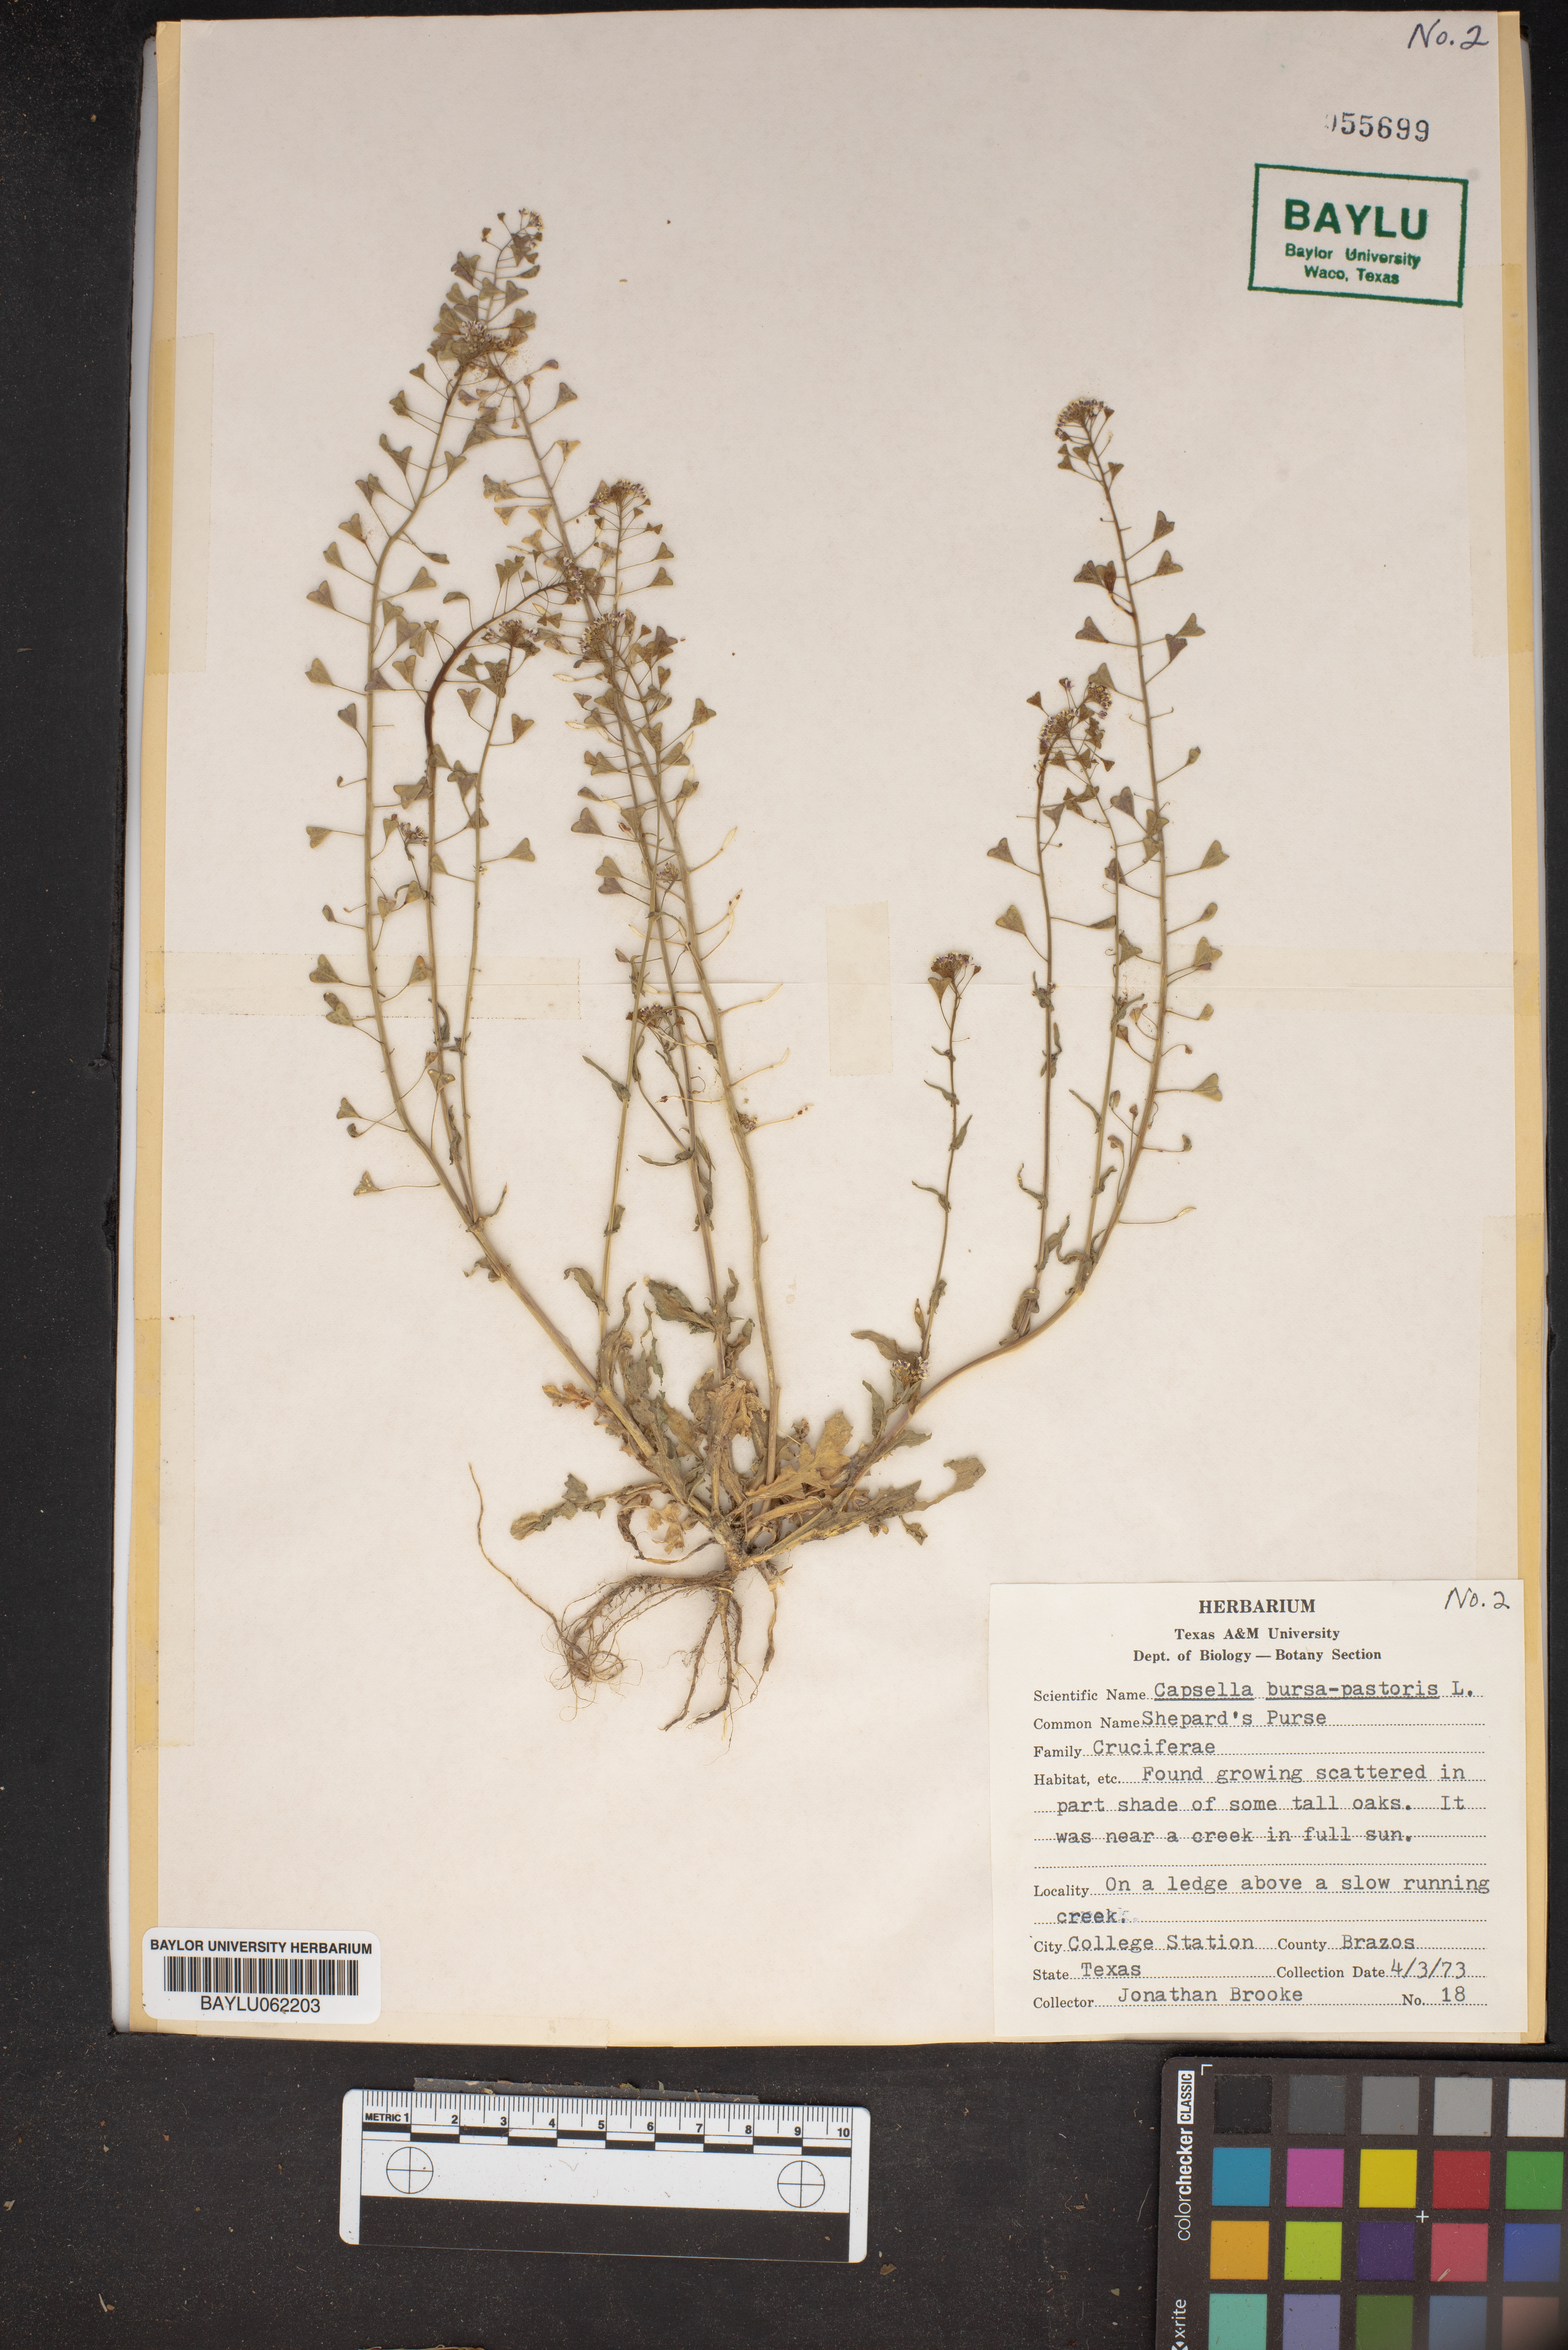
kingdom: Plantae
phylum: Tracheophyta
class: Magnoliopsida
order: Brassicales
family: Brassicaceae
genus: Capsella
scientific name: Capsella bursa-pastoris
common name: Shepherd's purse
